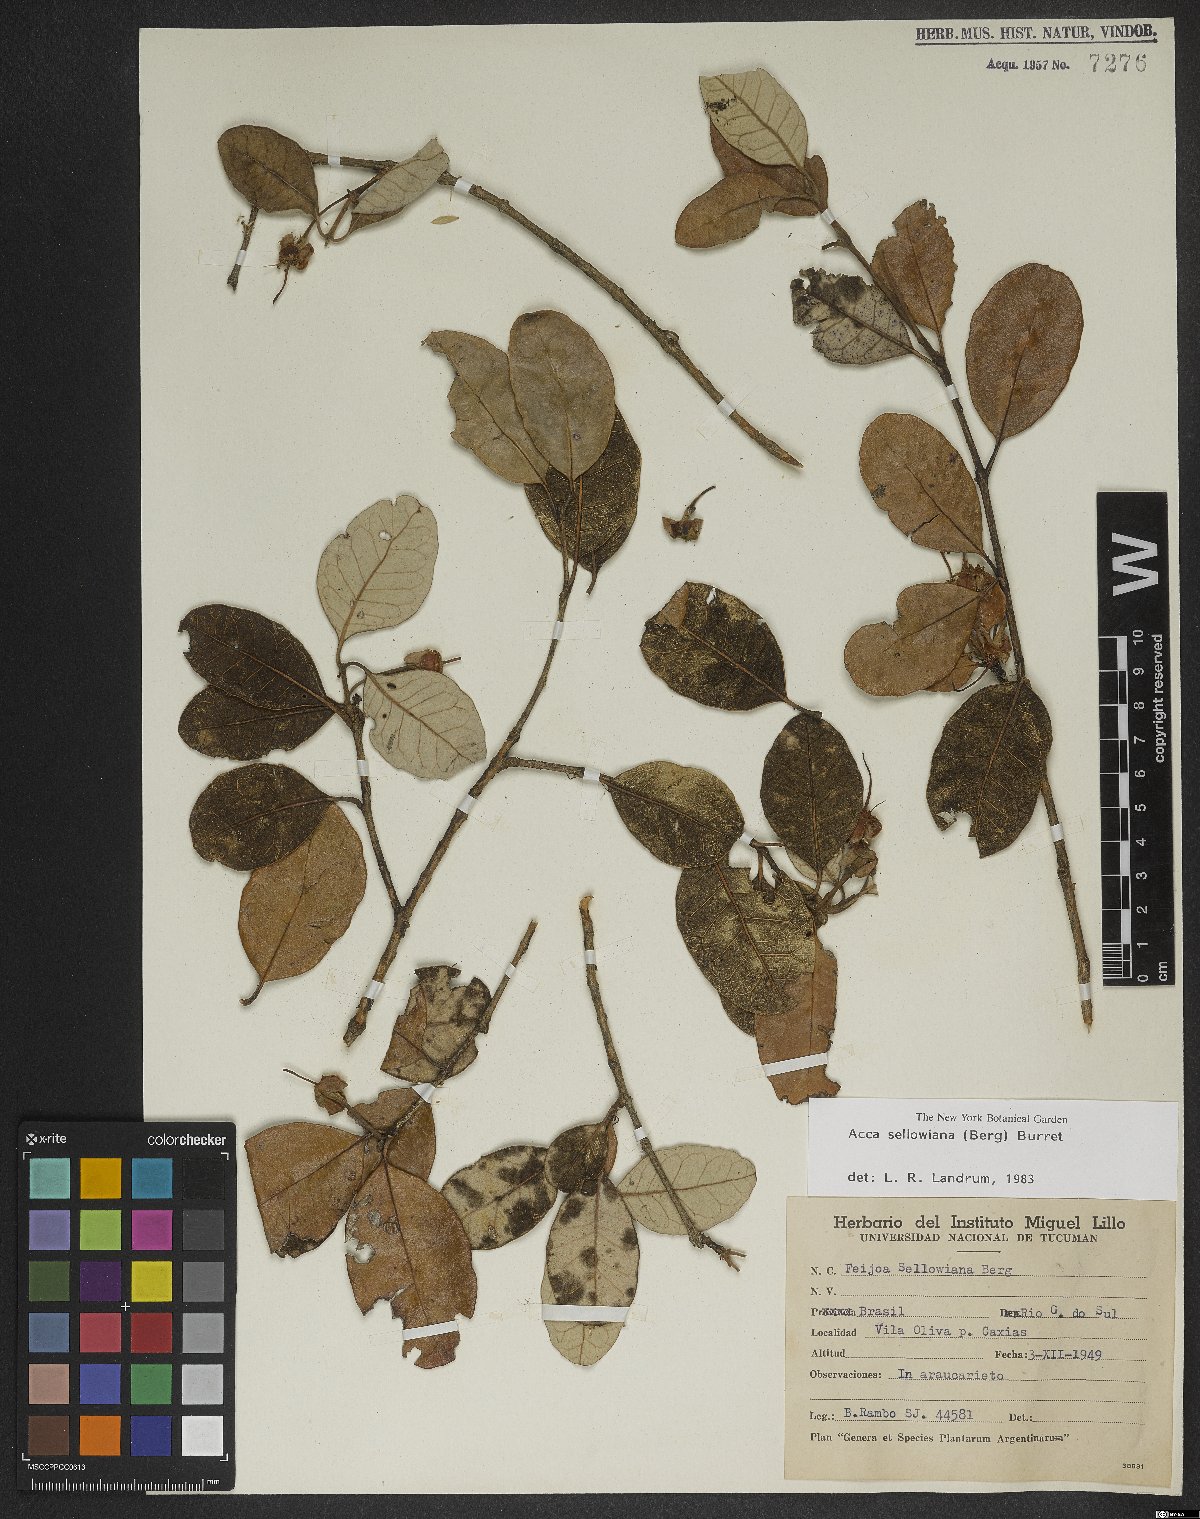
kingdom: Plantae
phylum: Tracheophyta
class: Magnoliopsida
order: Myrtales
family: Myrtaceae
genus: Feijoa
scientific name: Feijoa sellowiana
